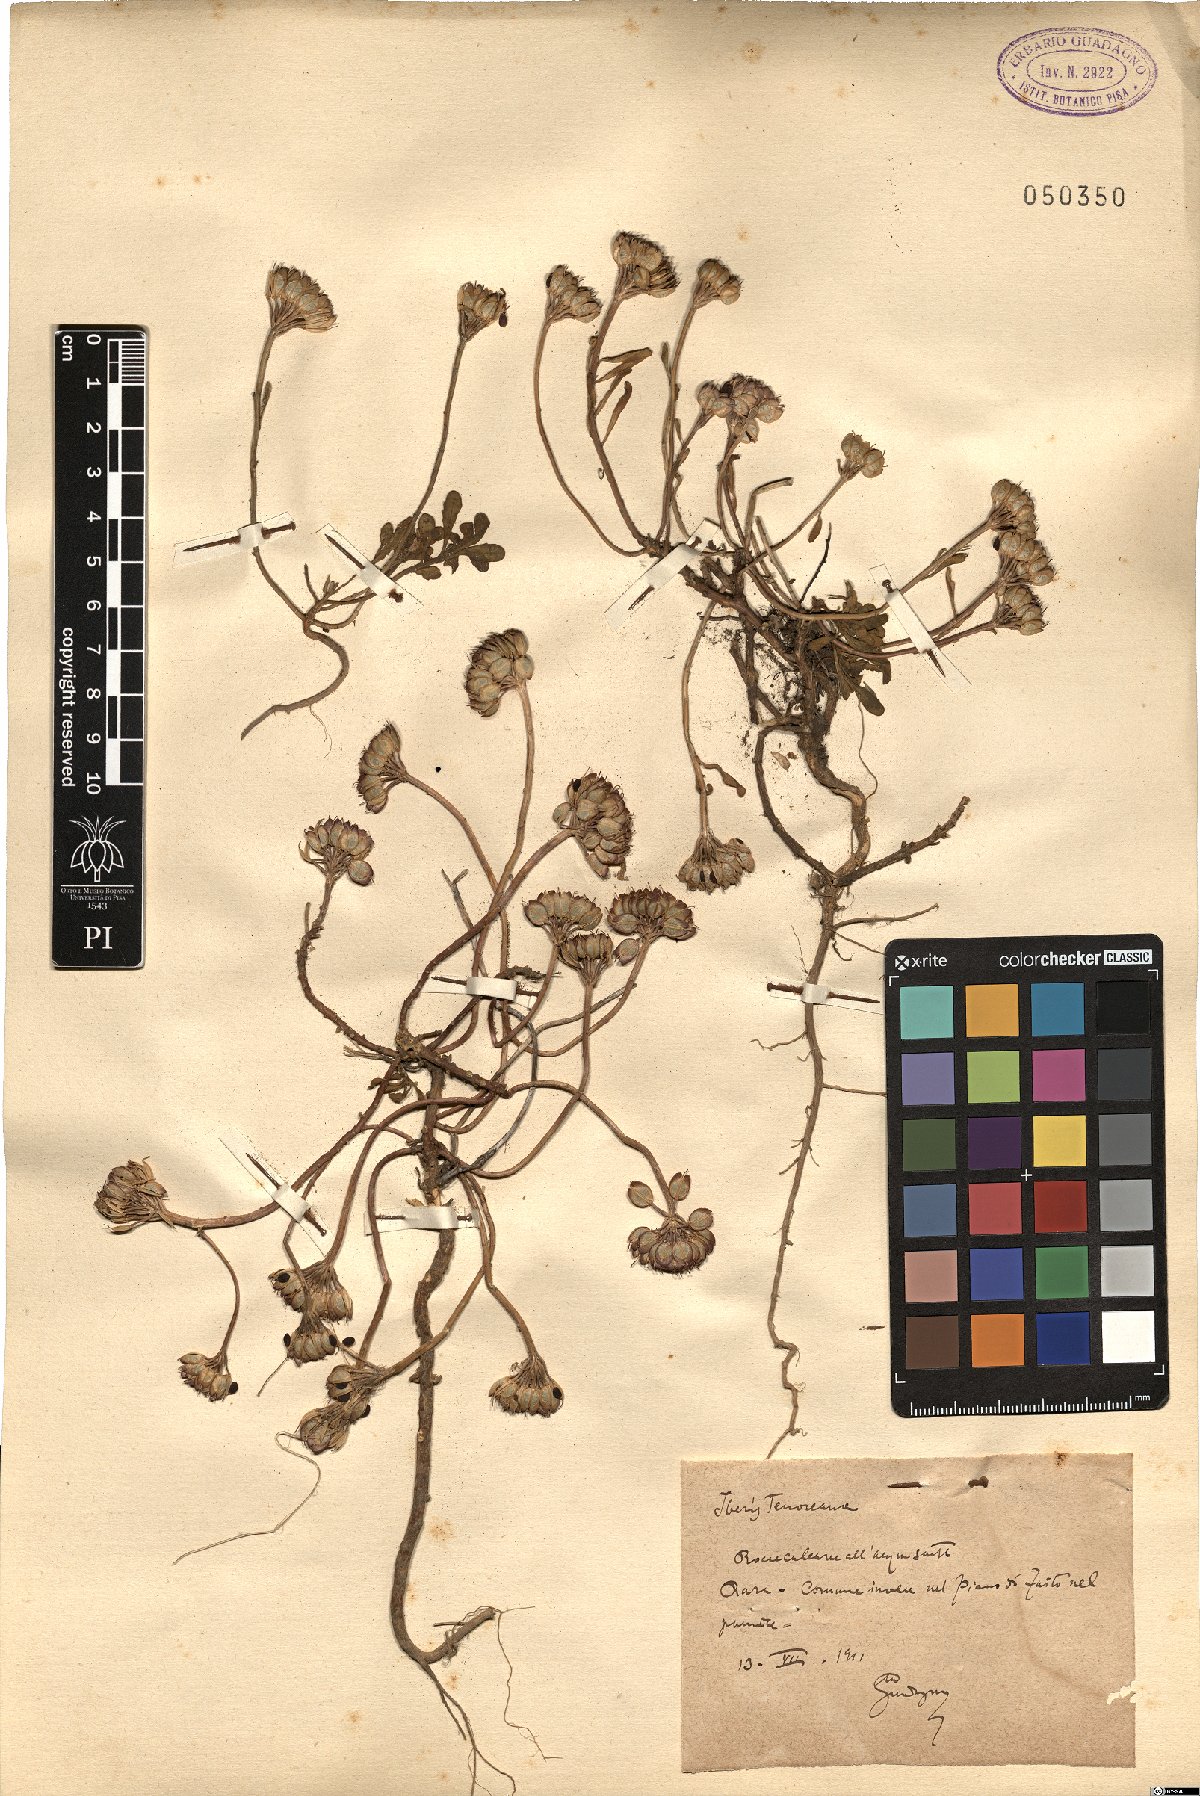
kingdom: Plantae
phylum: Tracheophyta
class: Magnoliopsida
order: Brassicales
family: Brassicaceae
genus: Iberis
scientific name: Iberis carnosa
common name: Pruit's candytuft
